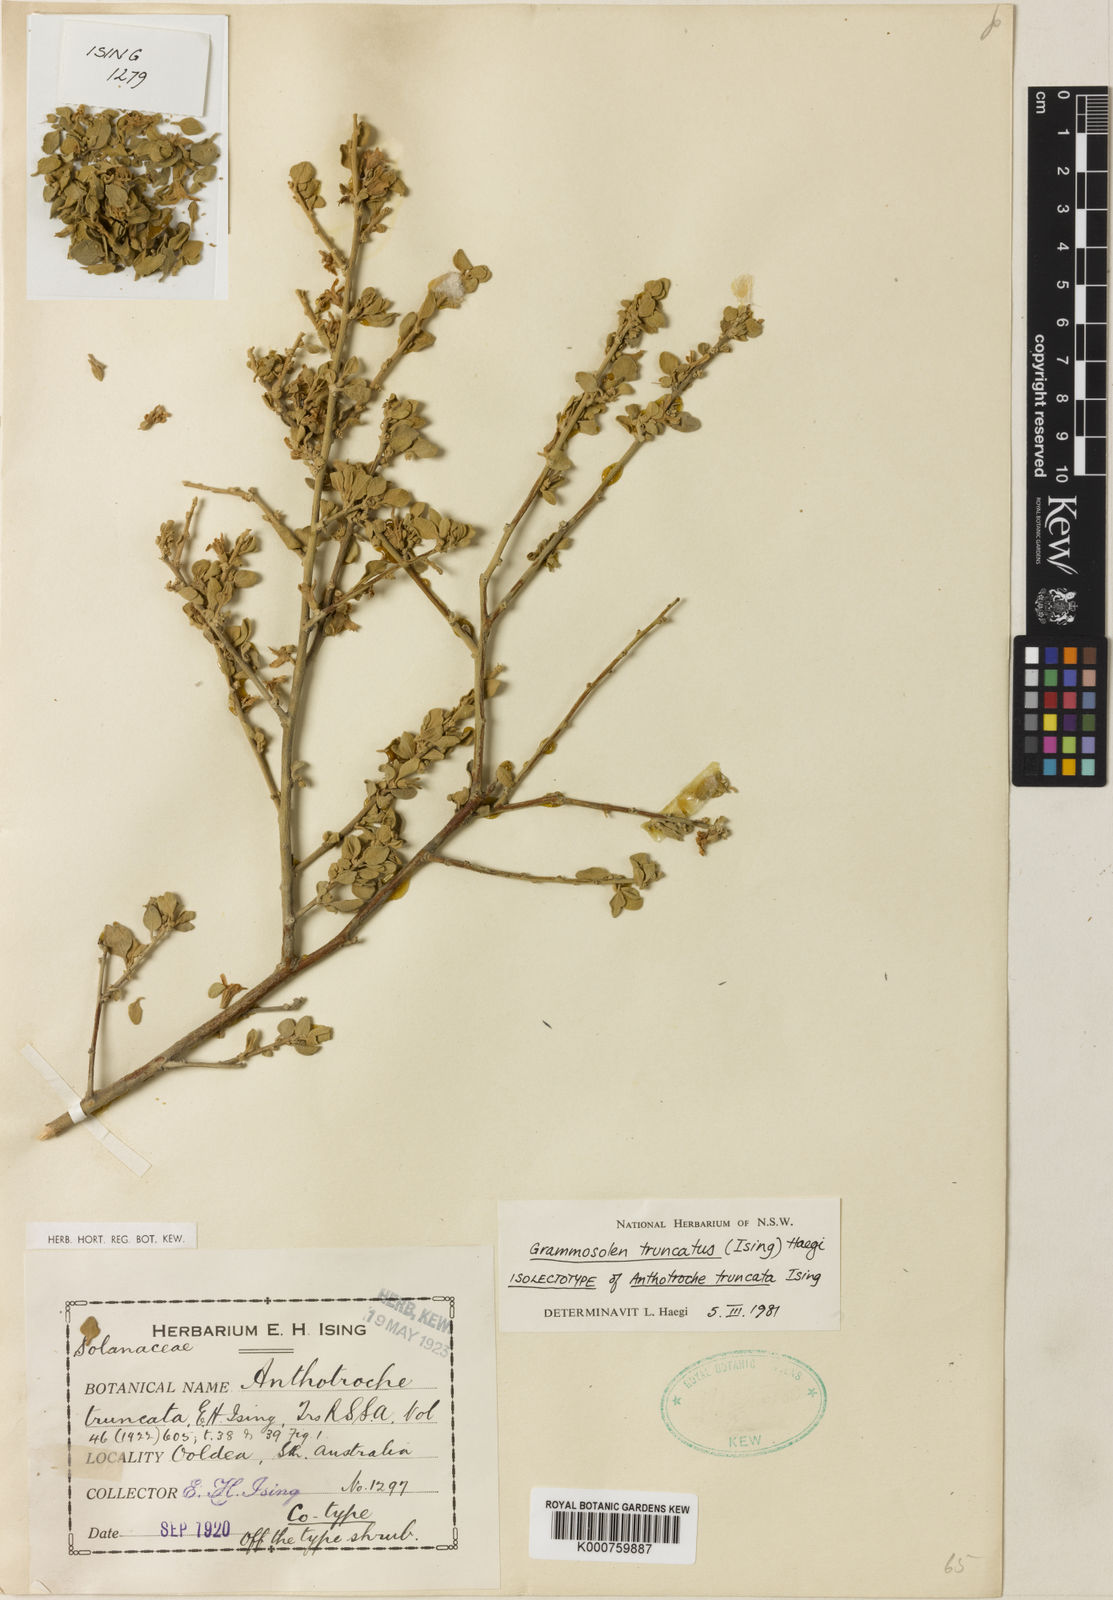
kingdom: Plantae
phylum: Tracheophyta
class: Magnoliopsida
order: Solanales
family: Solanaceae
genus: Grammosolen
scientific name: Grammosolen truncatus
